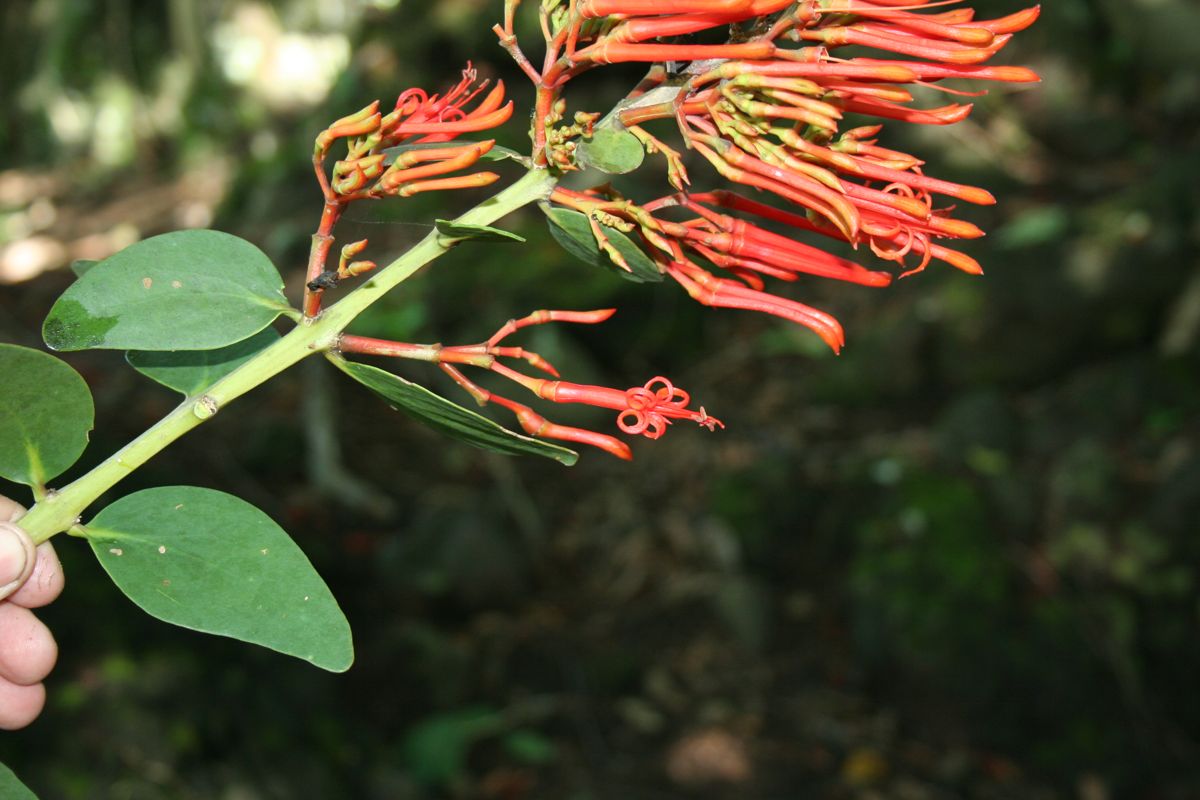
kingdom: Plantae
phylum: Tracheophyta
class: Magnoliopsida
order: Santalales
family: Loranthaceae
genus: Psittacanthus
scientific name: Psittacanthus rhynchanthus
